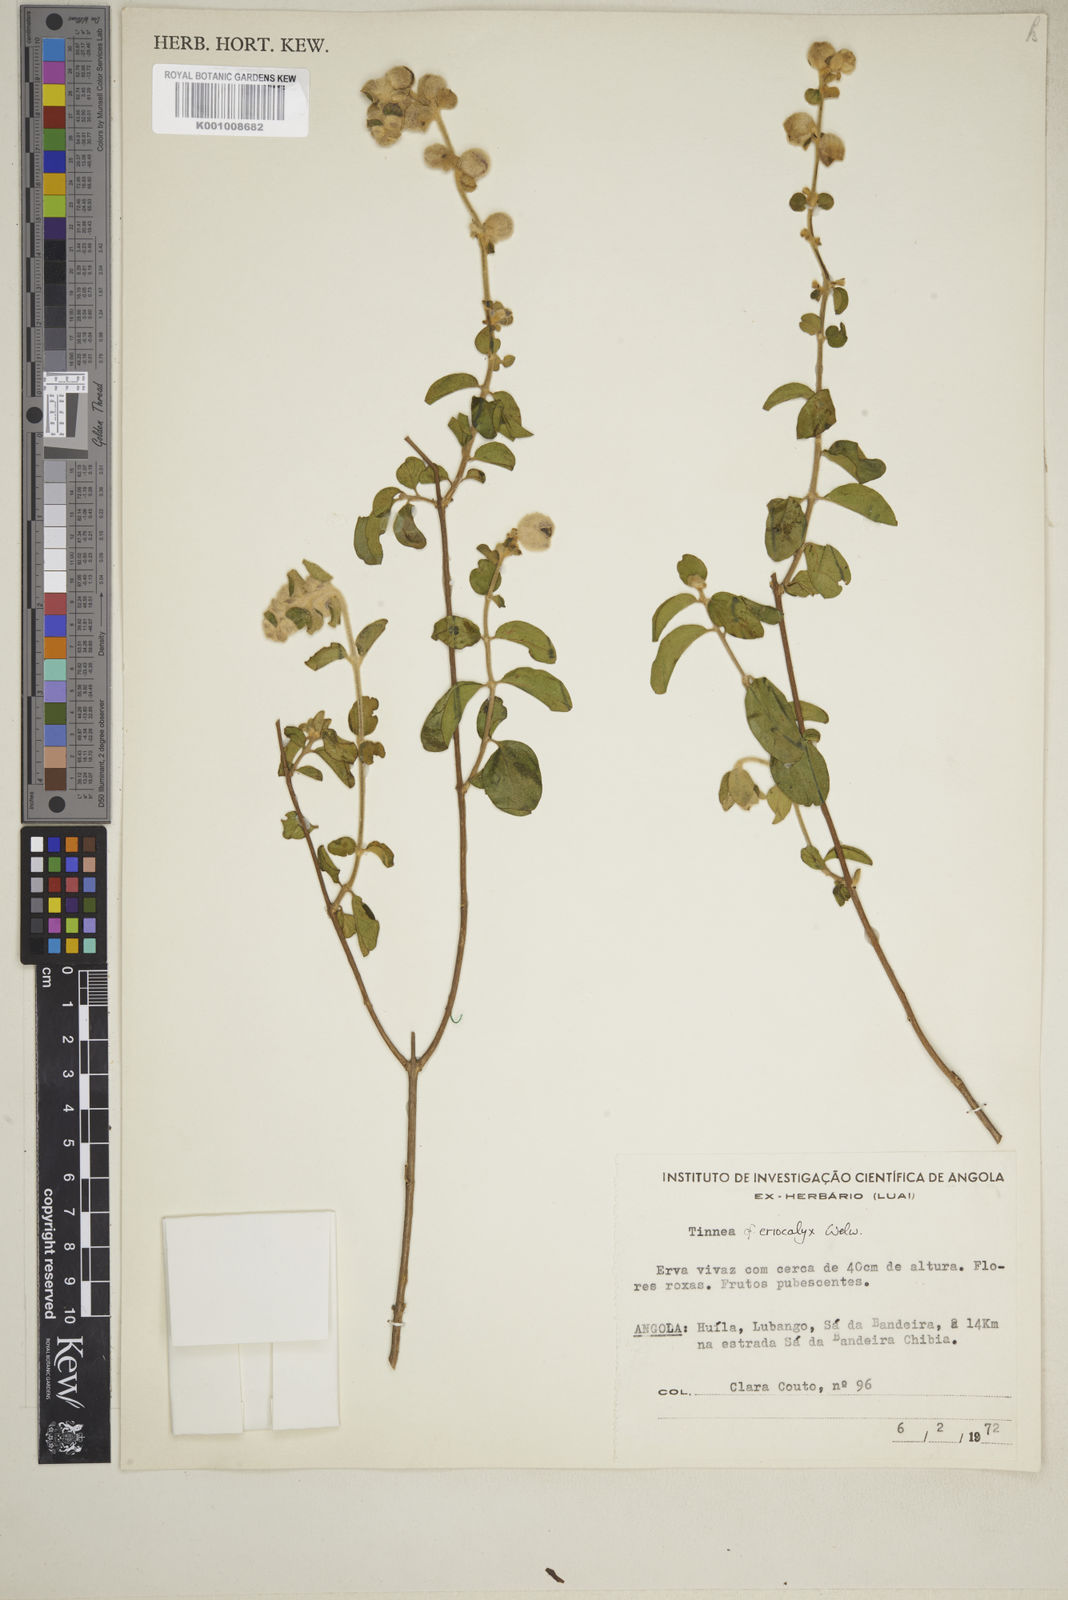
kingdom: Plantae
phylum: Tracheophyta
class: Magnoliopsida
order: Lamiales
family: Lamiaceae
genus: Tinnea
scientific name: Tinnea eriocalyx
